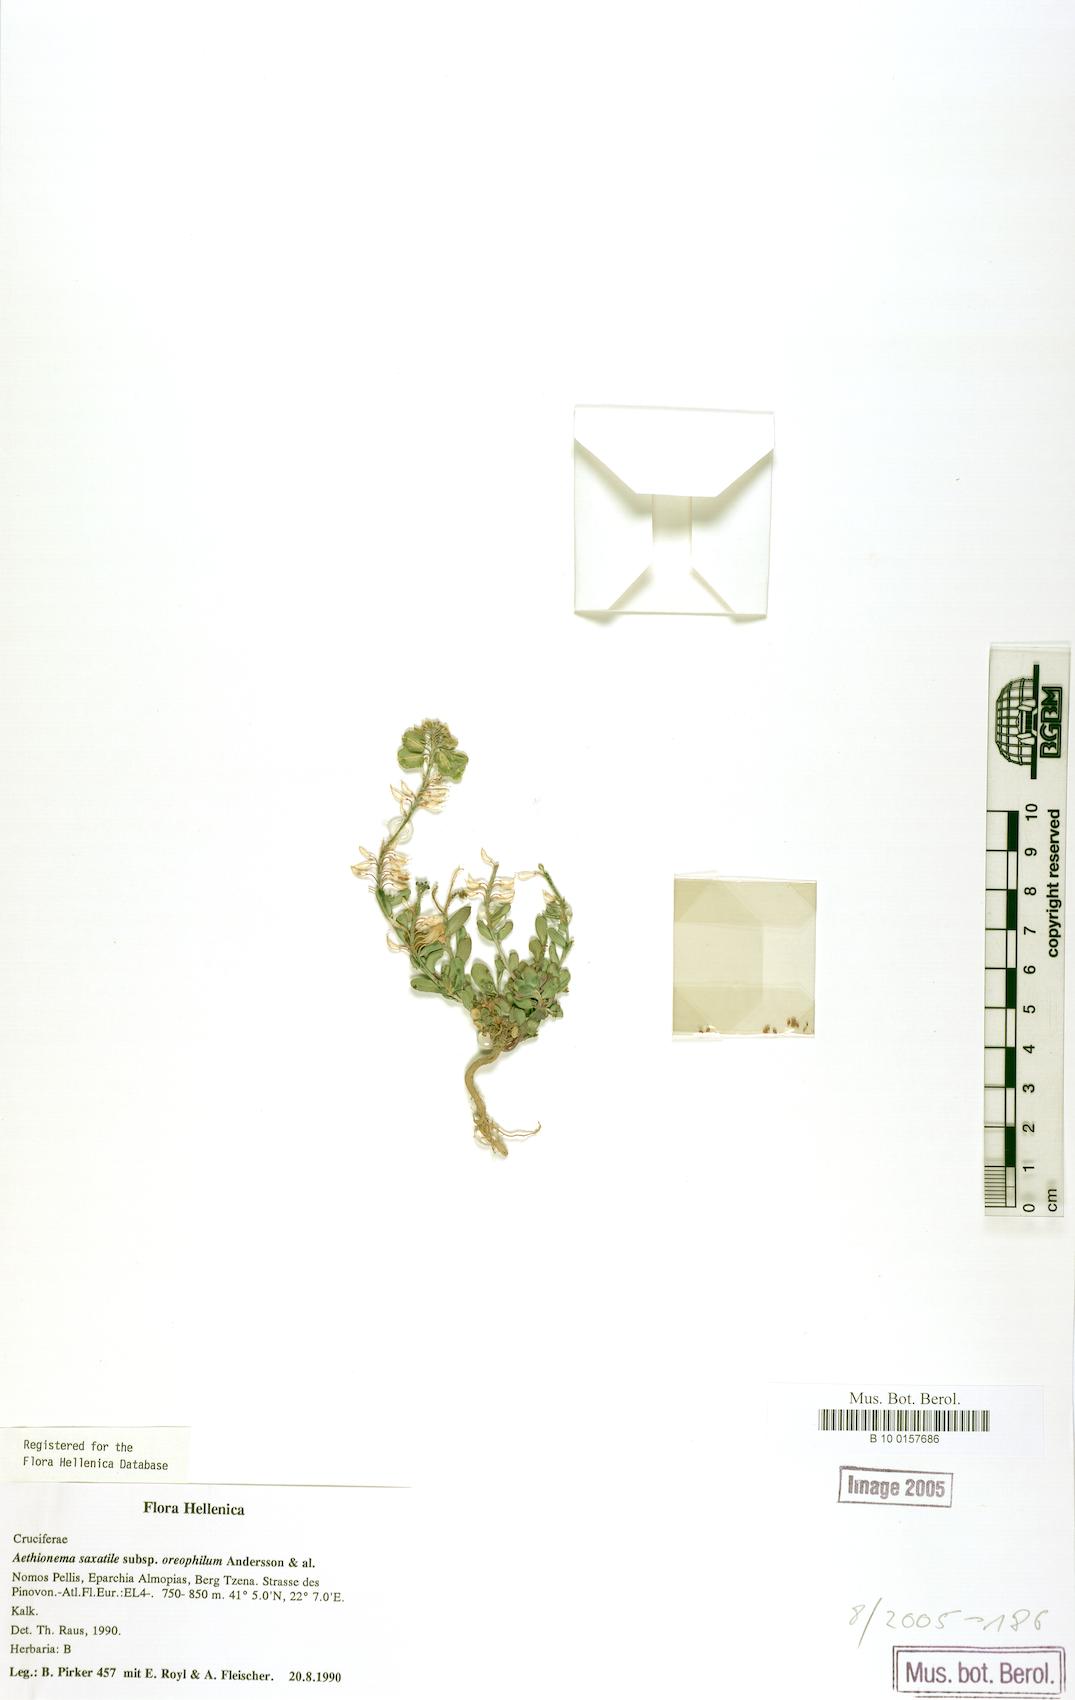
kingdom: Plantae
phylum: Tracheophyta
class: Magnoliopsida
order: Brassicales
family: Brassicaceae
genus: Aethionema
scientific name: Aethionema saxatile
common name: Burnt candytuft
